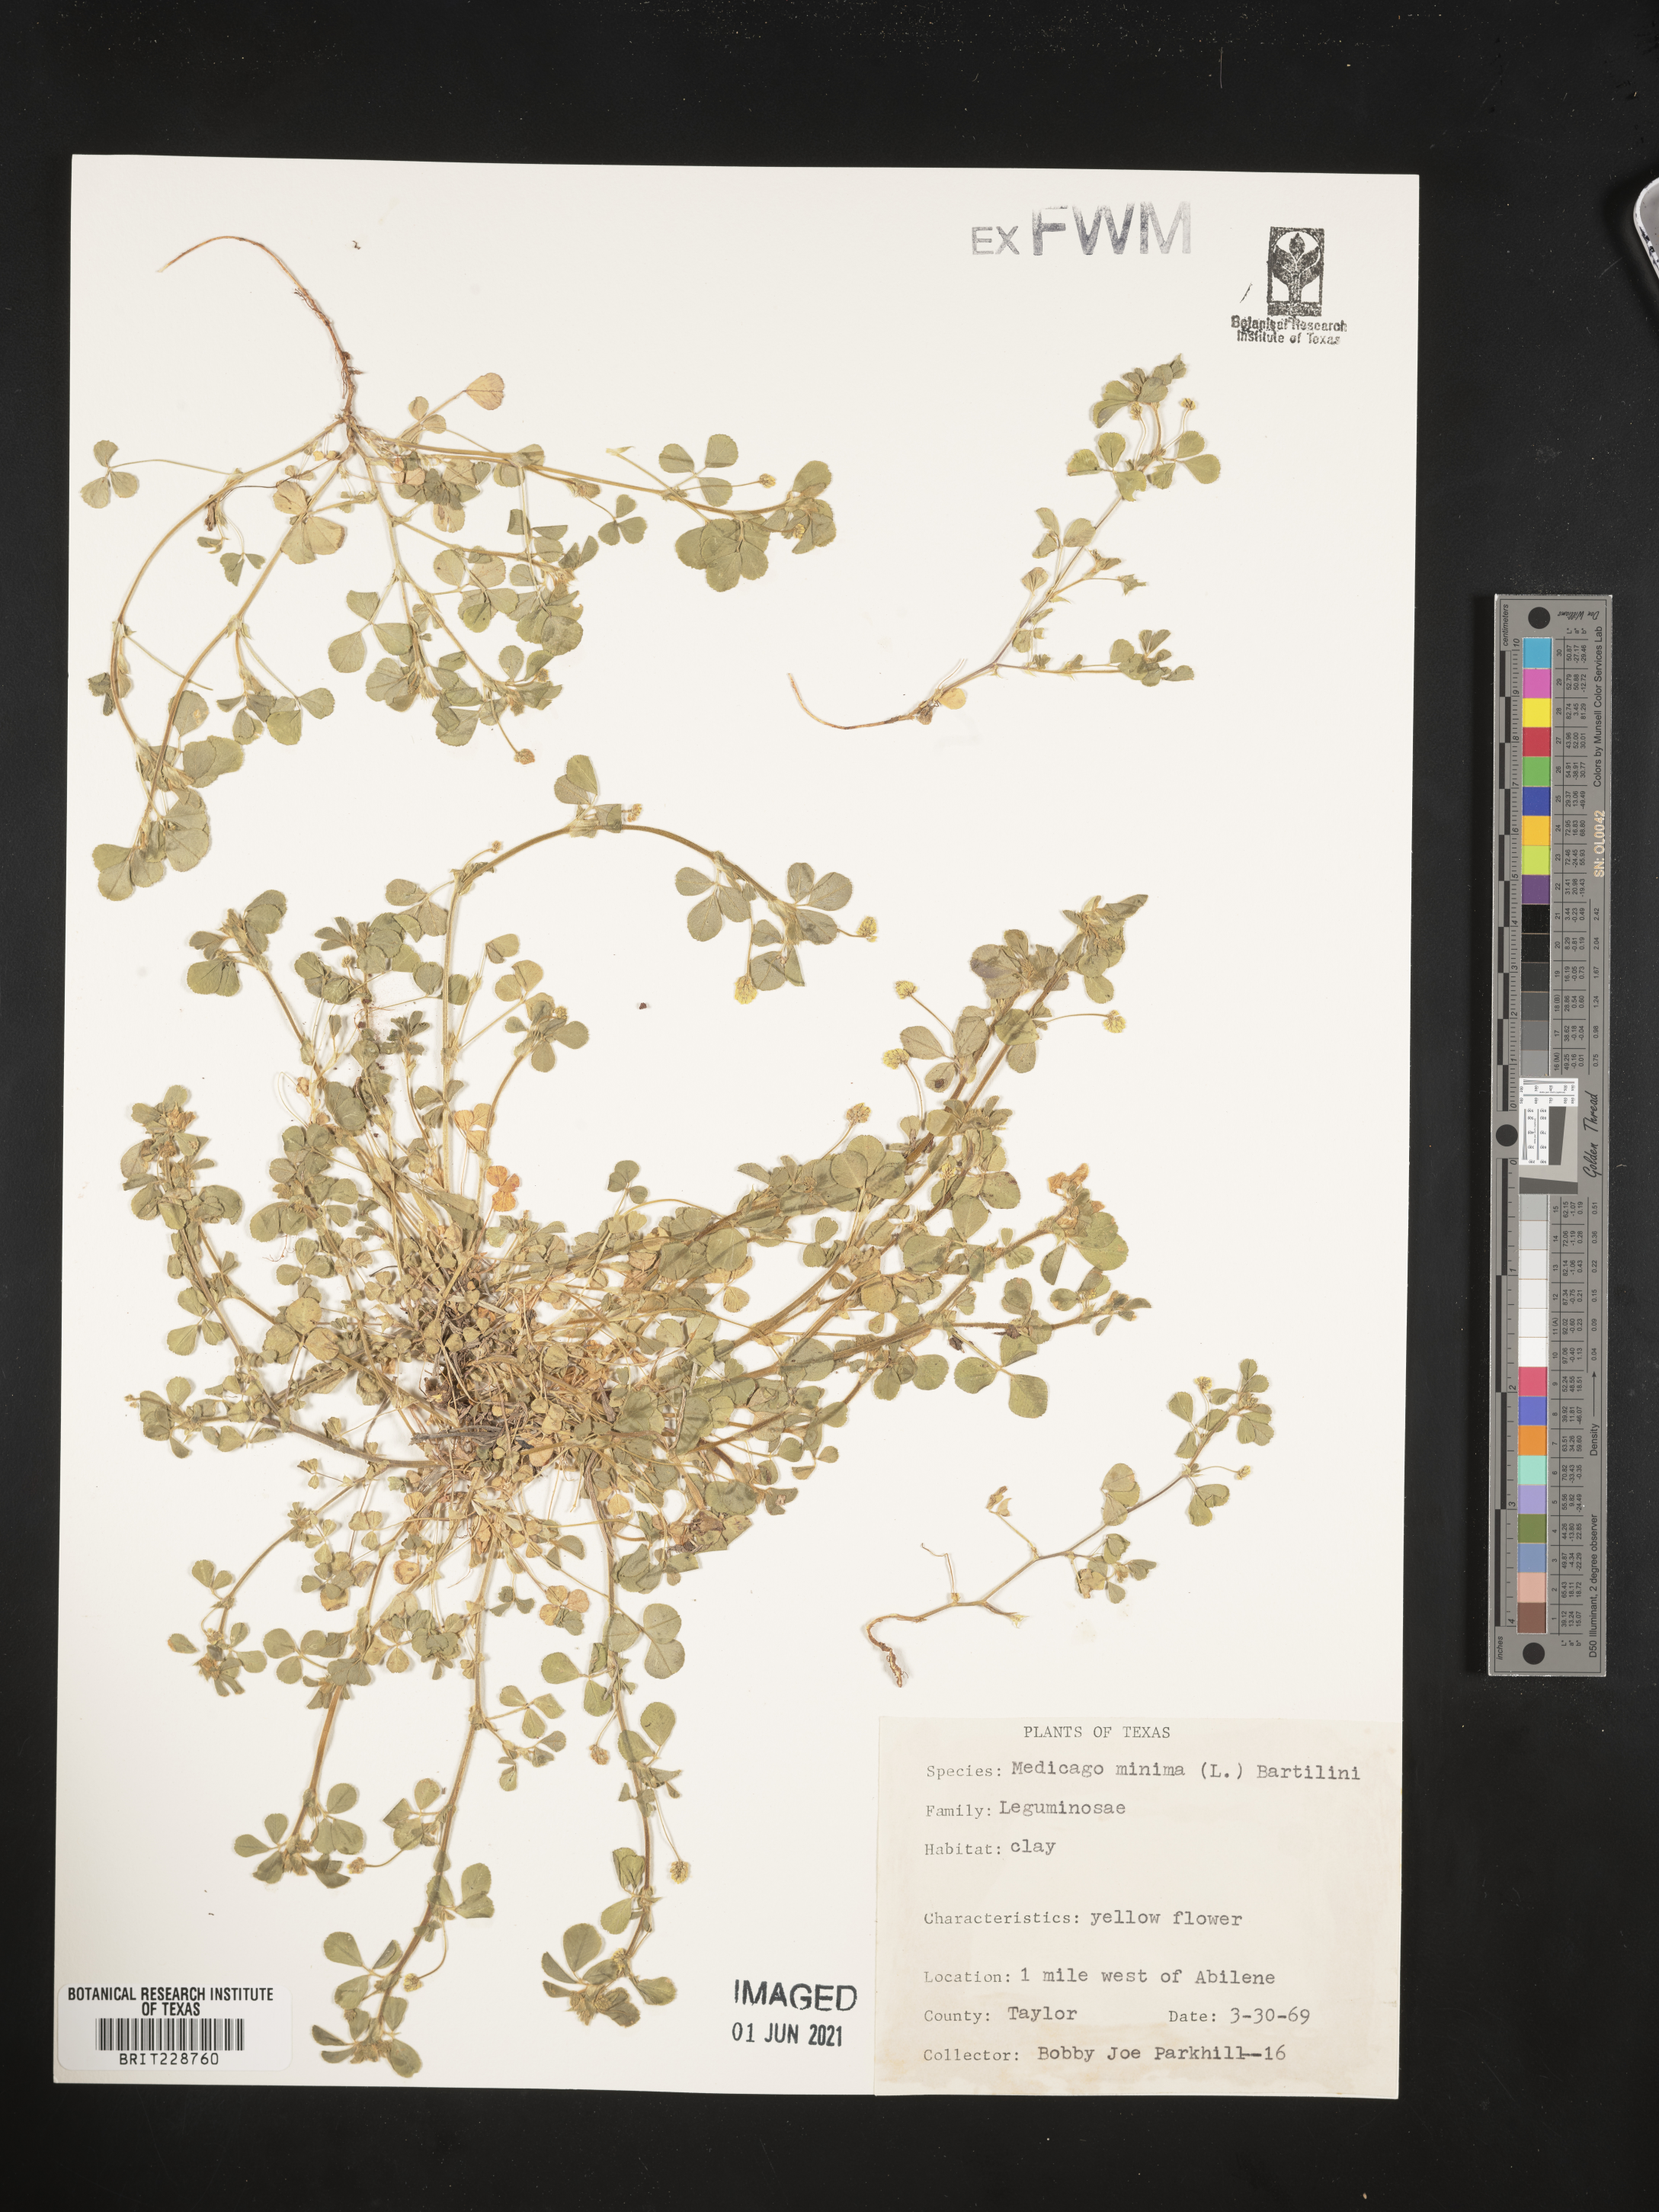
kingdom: Plantae
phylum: Tracheophyta
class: Magnoliopsida
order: Fabales
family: Fabaceae
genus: Medicago
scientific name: Medicago minima
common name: Little bur-clover
